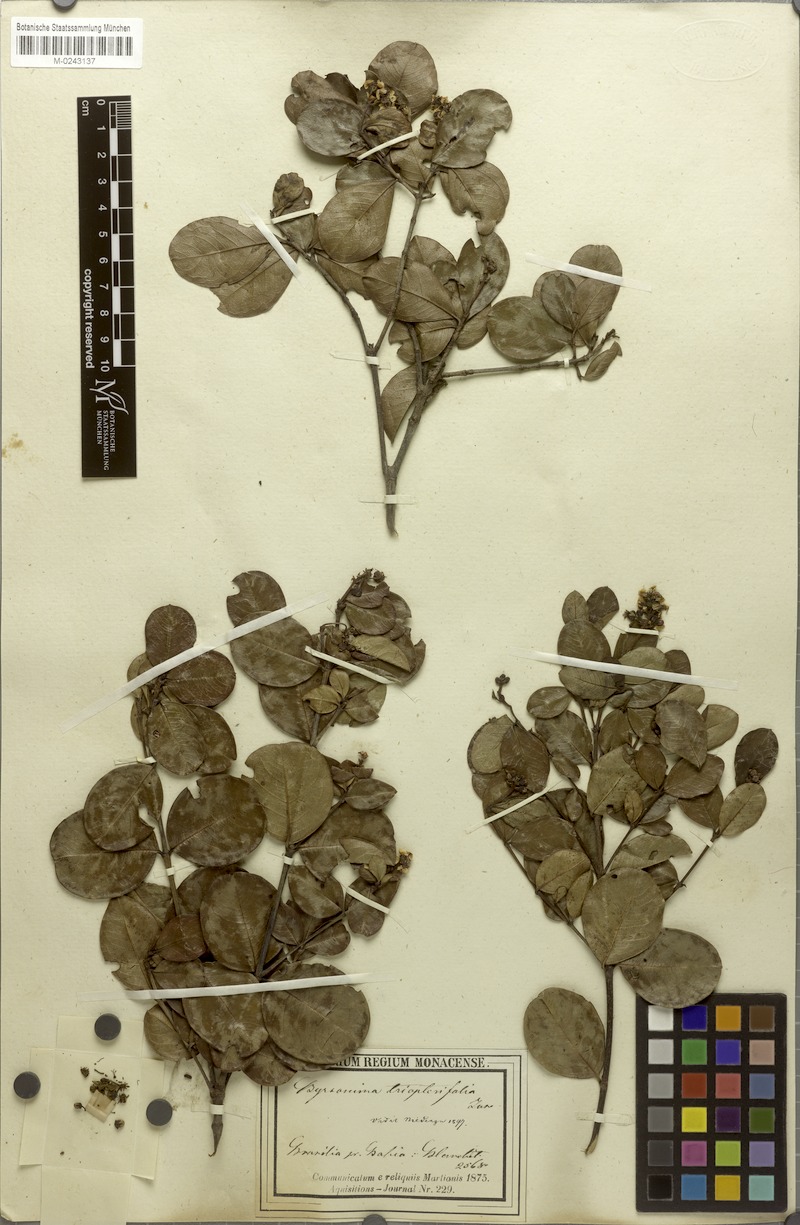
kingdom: Plantae
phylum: Tracheophyta
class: Magnoliopsida
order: Malpighiales
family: Malpighiaceae
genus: Byrsonima
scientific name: Byrsonima triopterifolia
